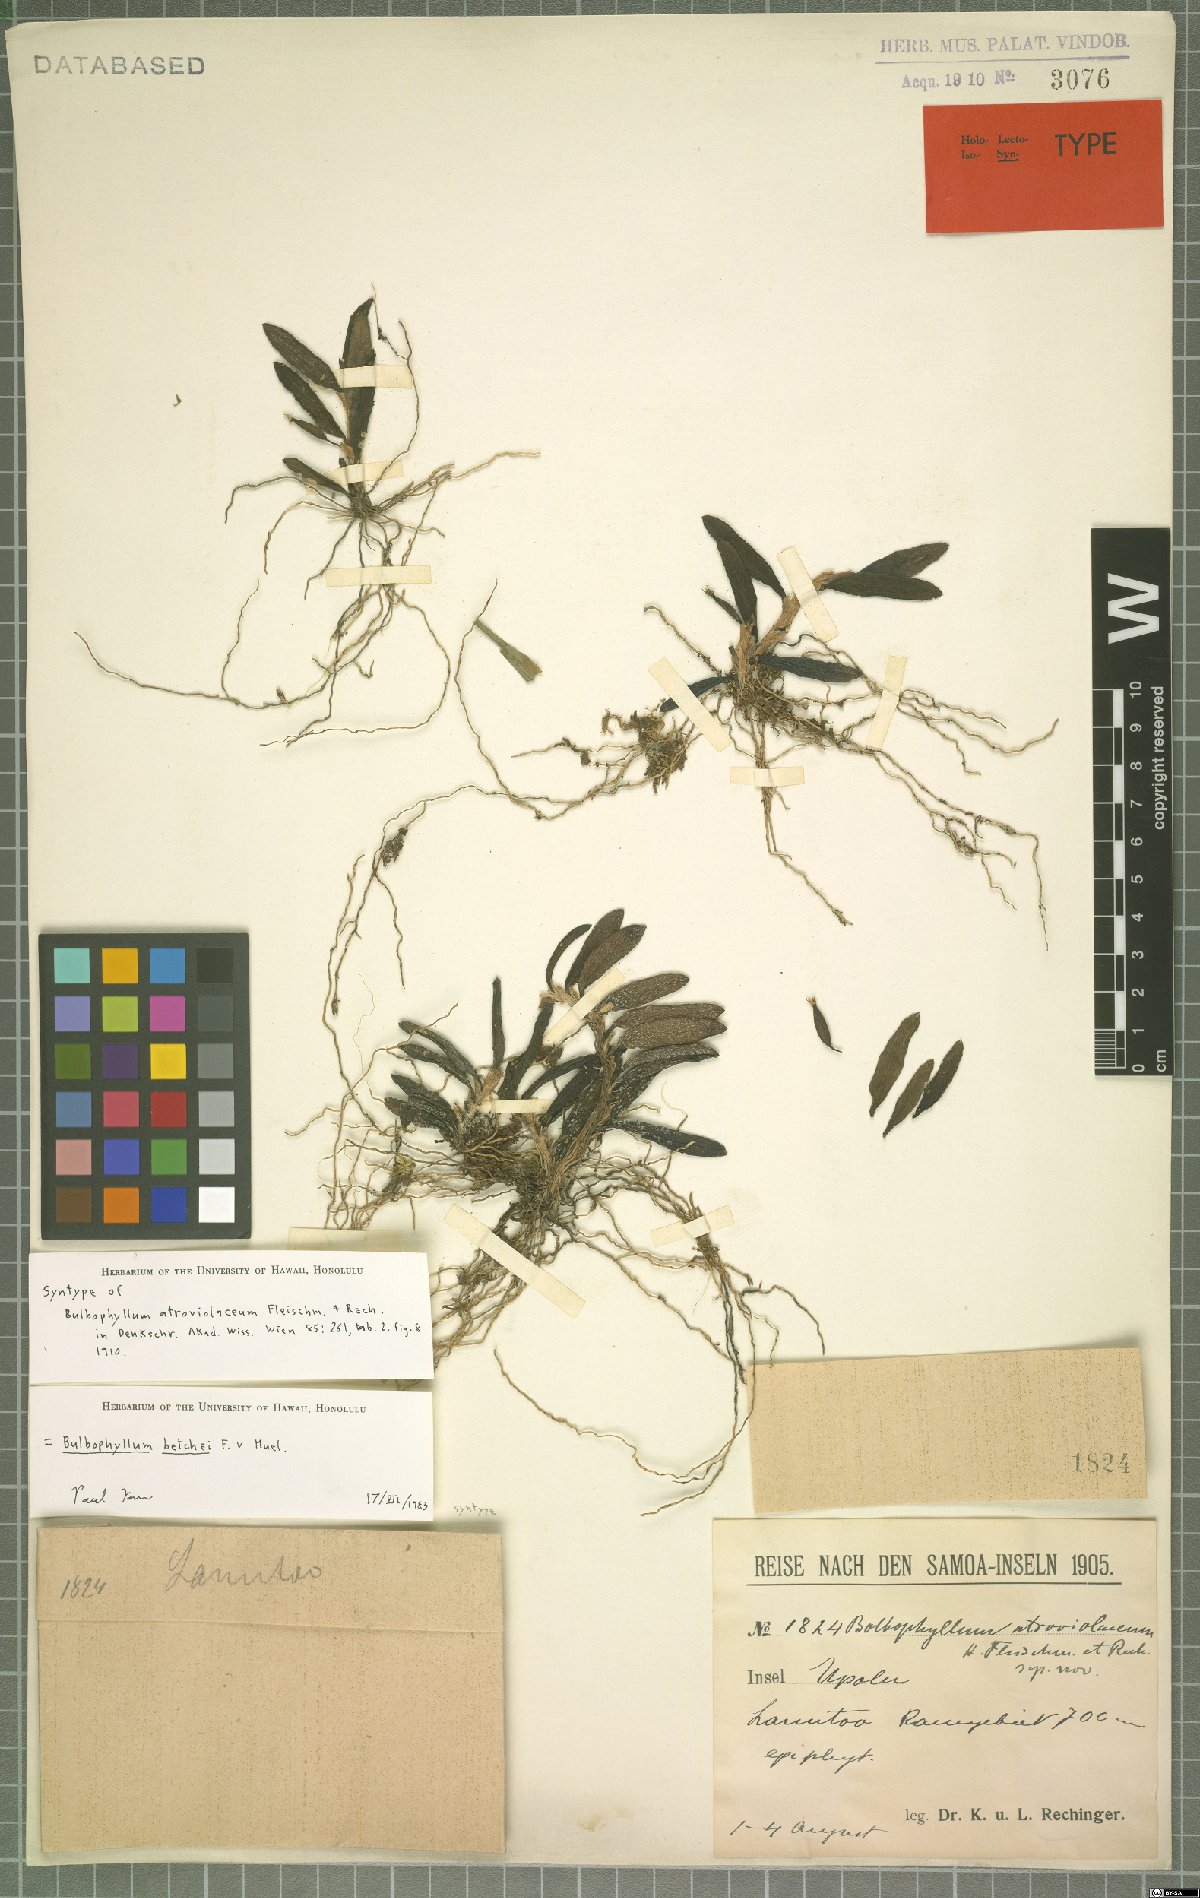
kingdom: Plantae
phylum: Tracheophyta
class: Liliopsida
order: Asparagales
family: Orchidaceae
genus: Bulbophyllum
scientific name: Bulbophyllum betchei
